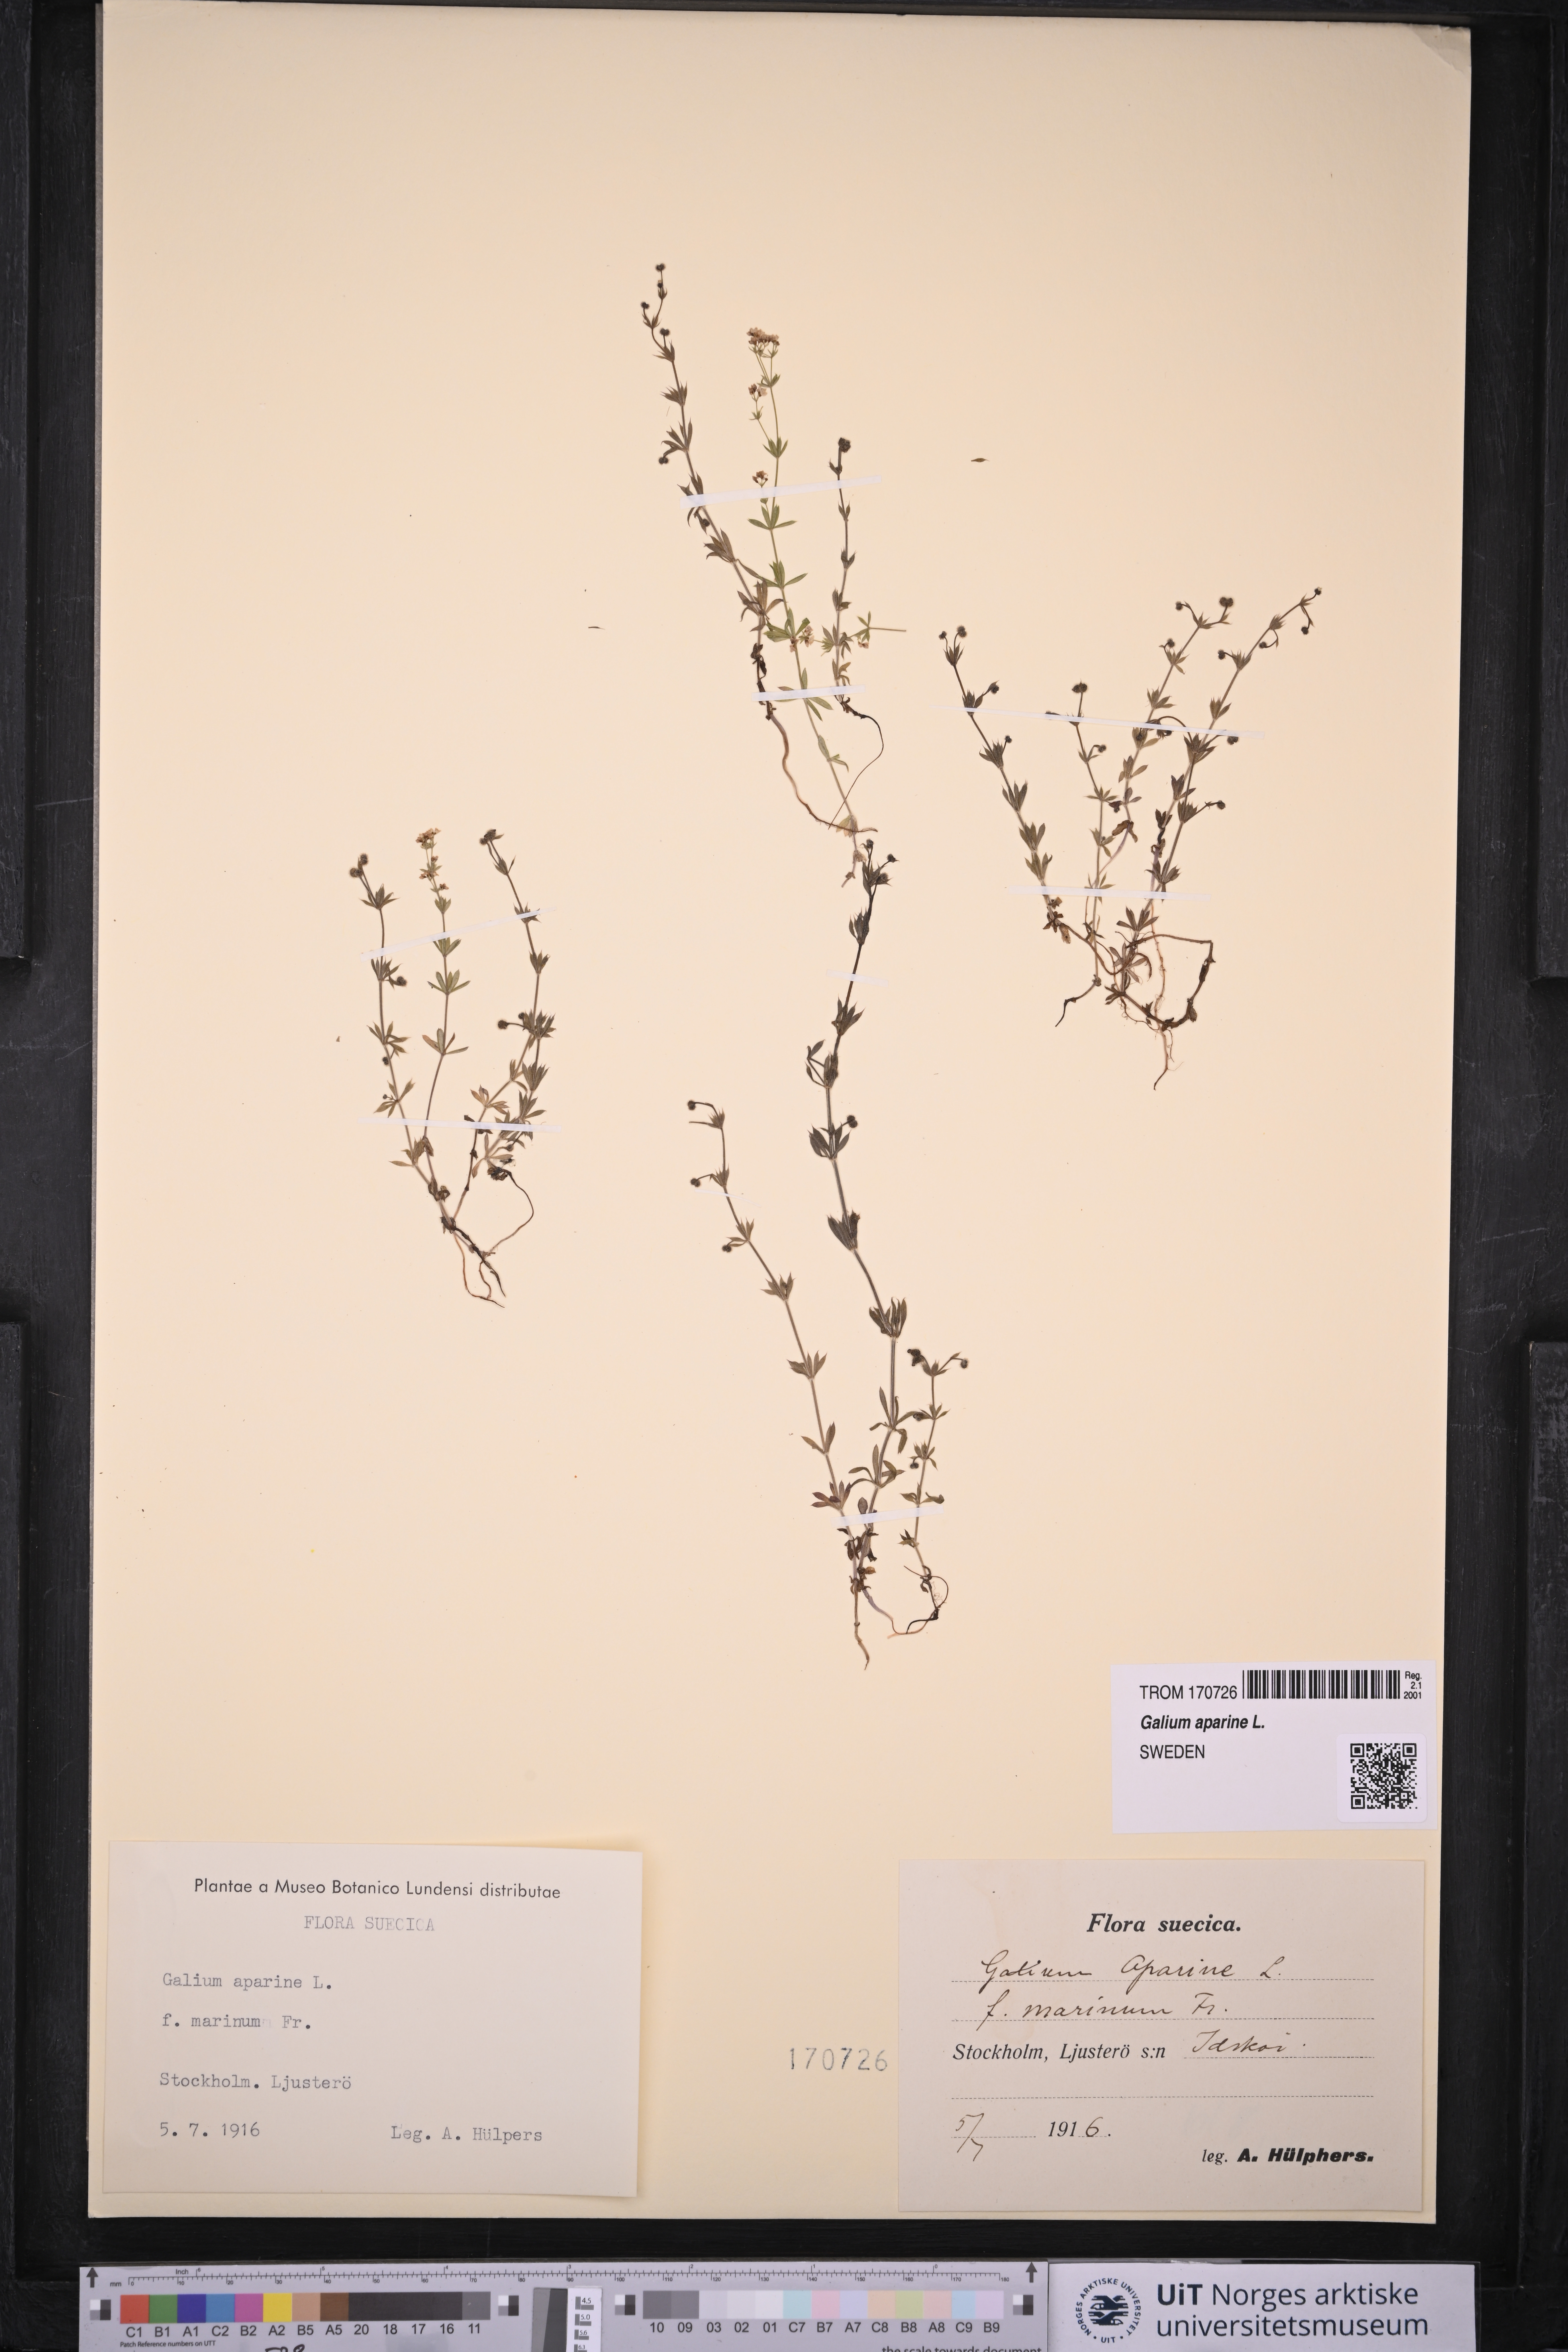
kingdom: Plantae
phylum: Tracheophyta
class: Magnoliopsida
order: Gentianales
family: Rubiaceae
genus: Galium
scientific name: Galium aparine
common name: Cleavers
